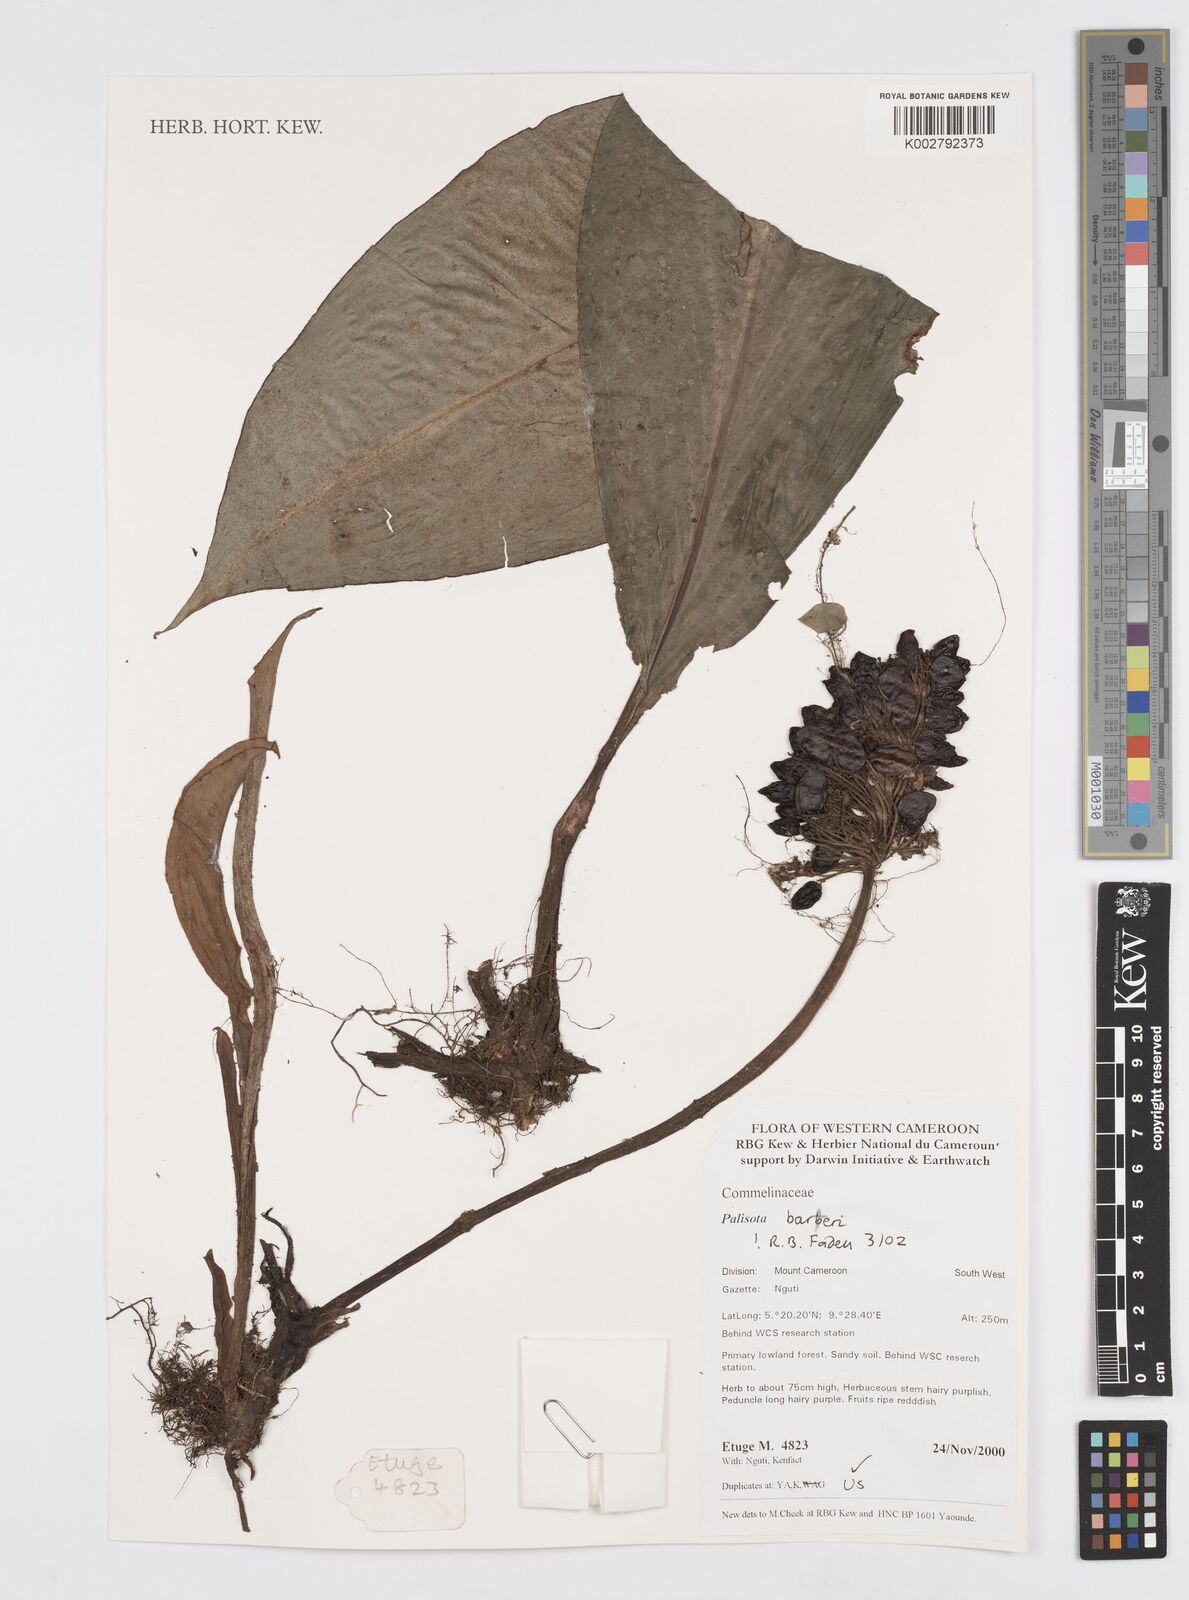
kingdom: Plantae
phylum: Tracheophyta
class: Liliopsida
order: Commelinales
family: Commelinaceae
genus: Palisota
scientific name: Palisota barteri
